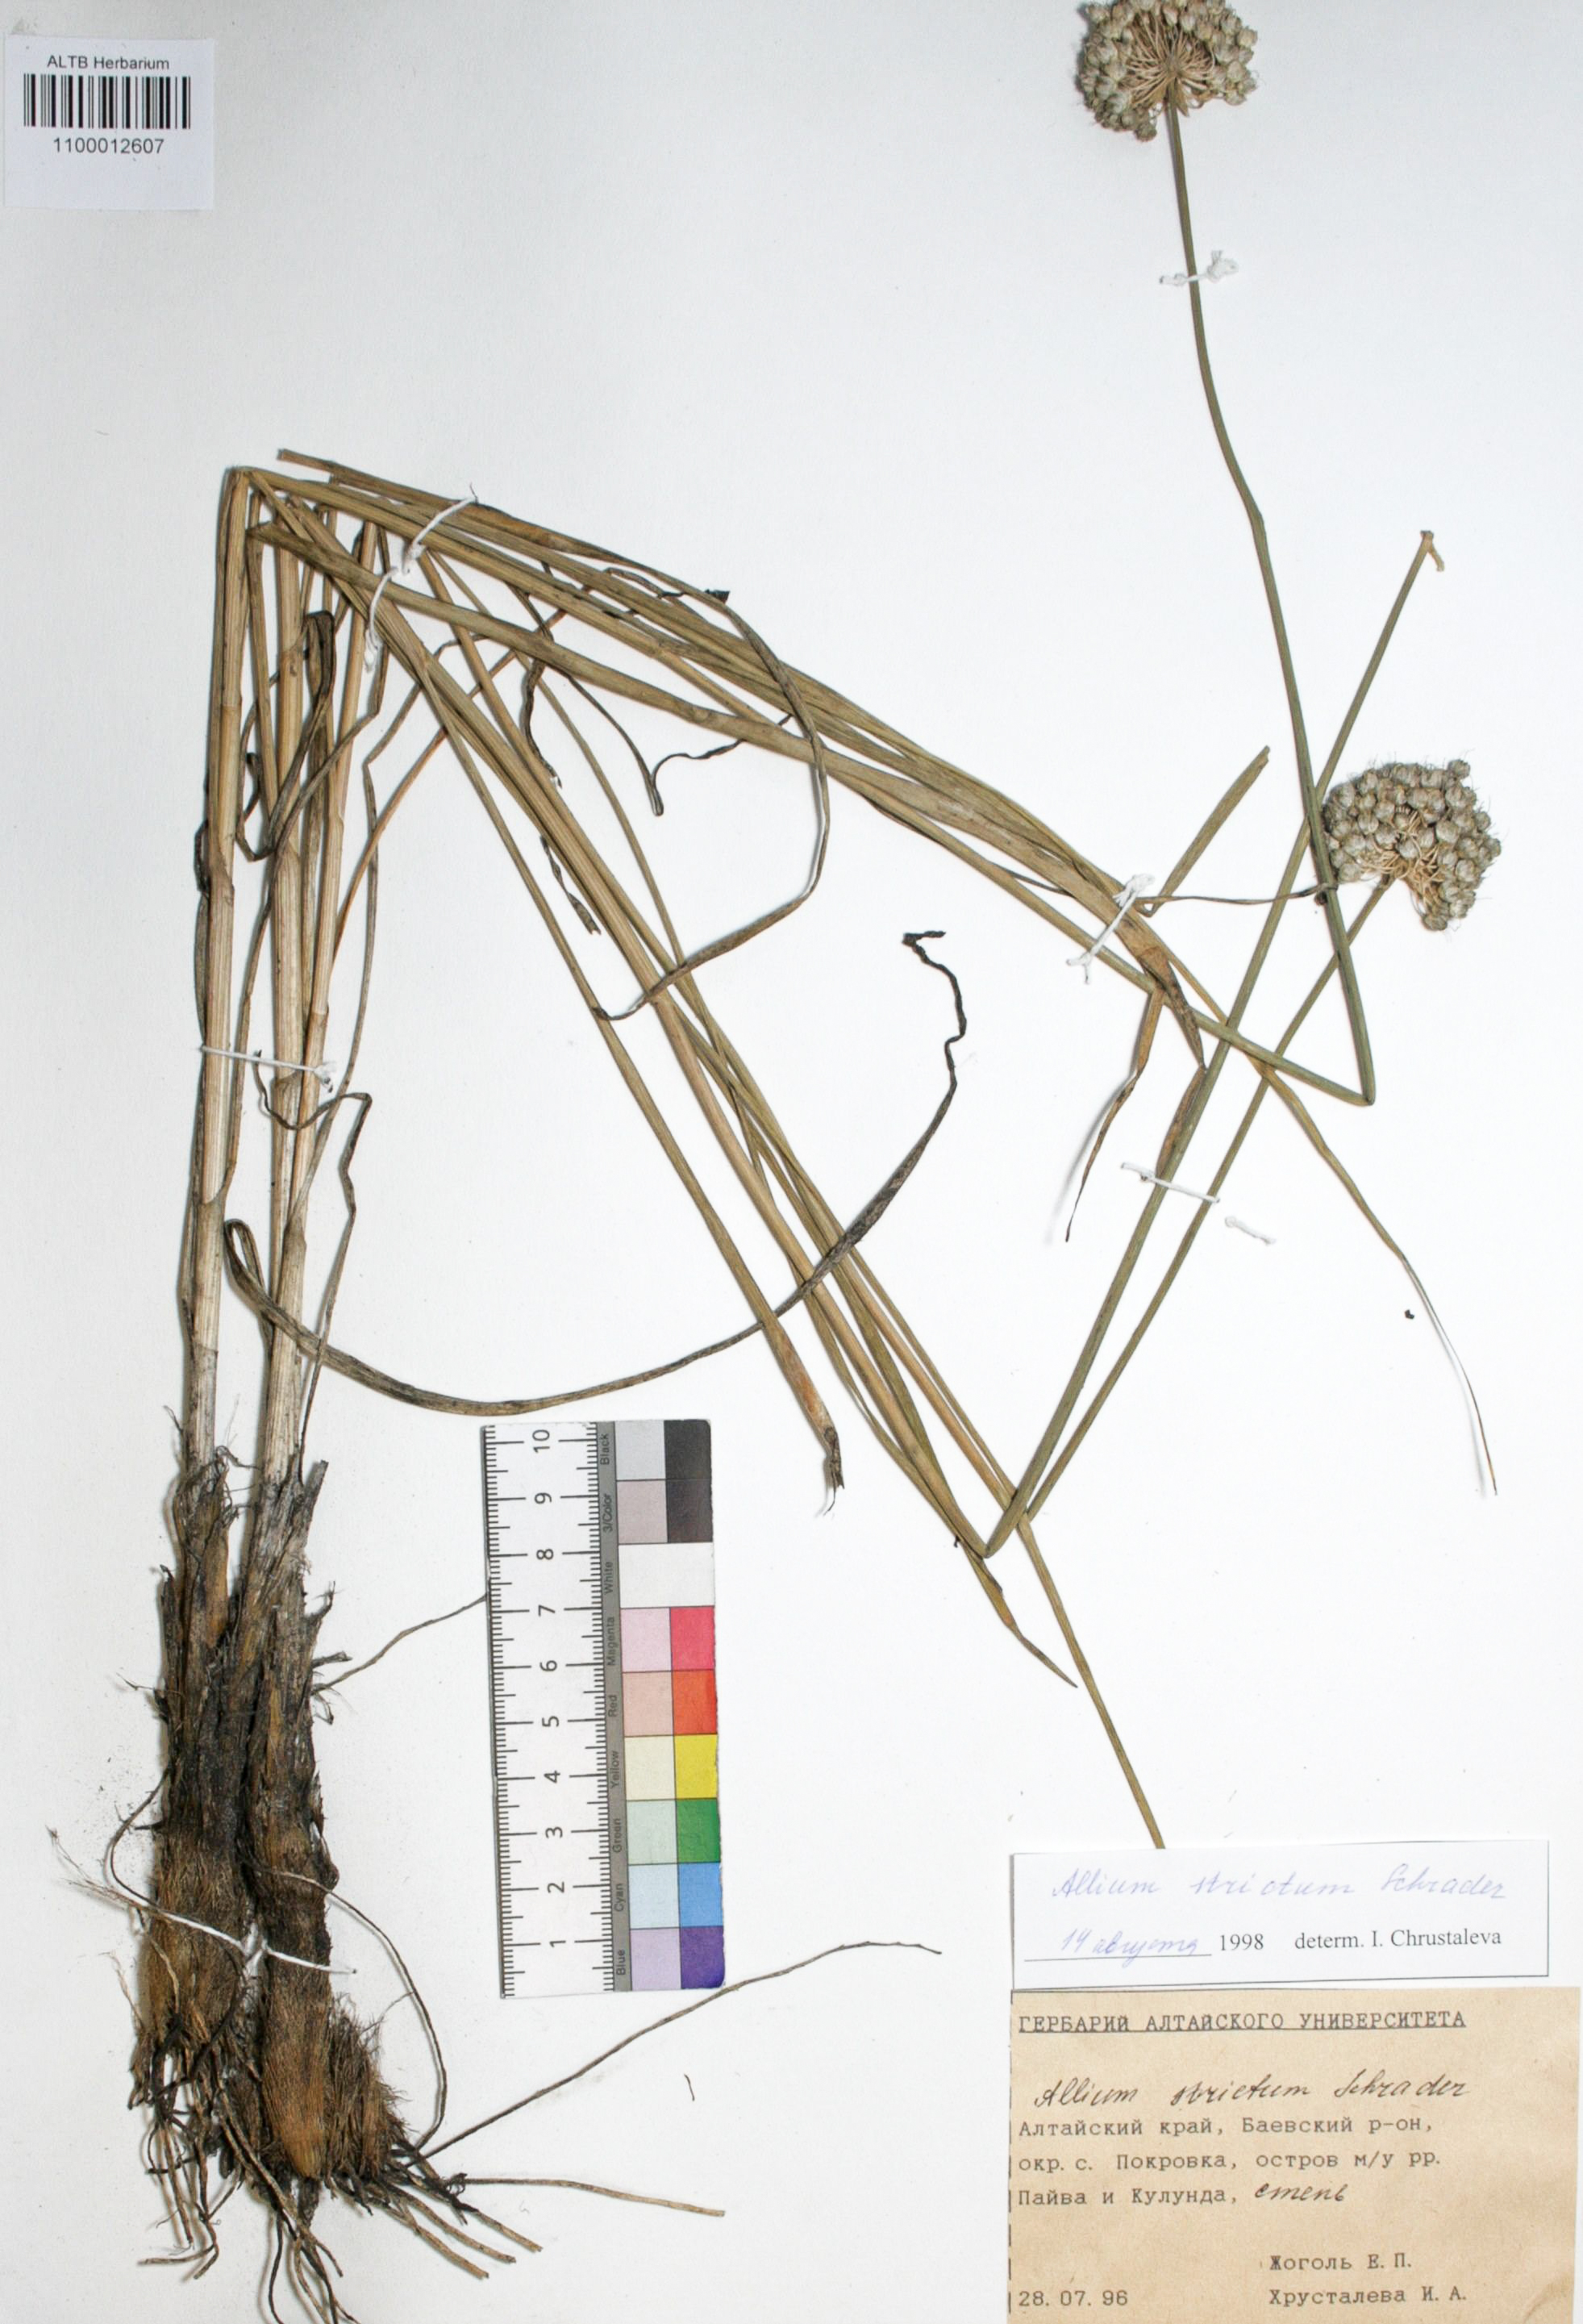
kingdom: Plantae
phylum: Tracheophyta
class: Liliopsida
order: Asparagales
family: Amaryllidaceae
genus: Allium
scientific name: Allium strictum
